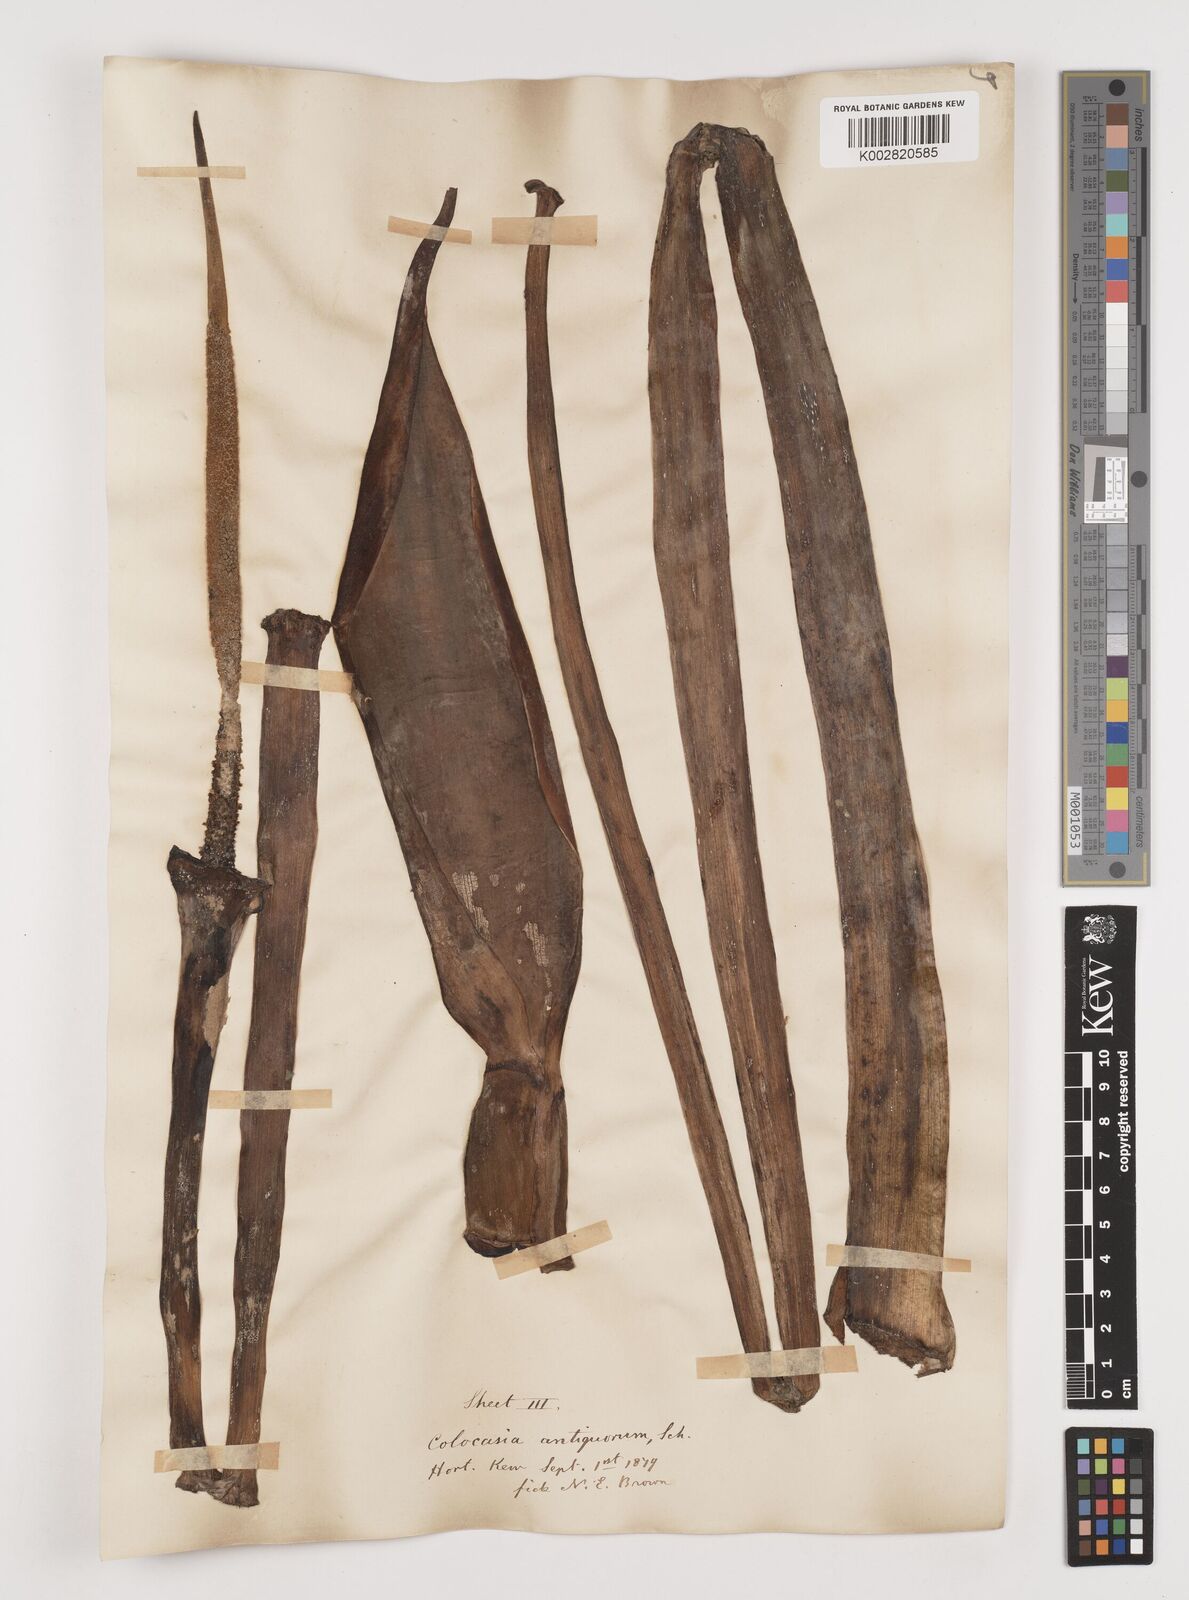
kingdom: Plantae
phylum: Tracheophyta
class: Liliopsida
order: Alismatales
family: Araceae
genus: Colocasia
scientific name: Colocasia esculenta
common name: Taro
